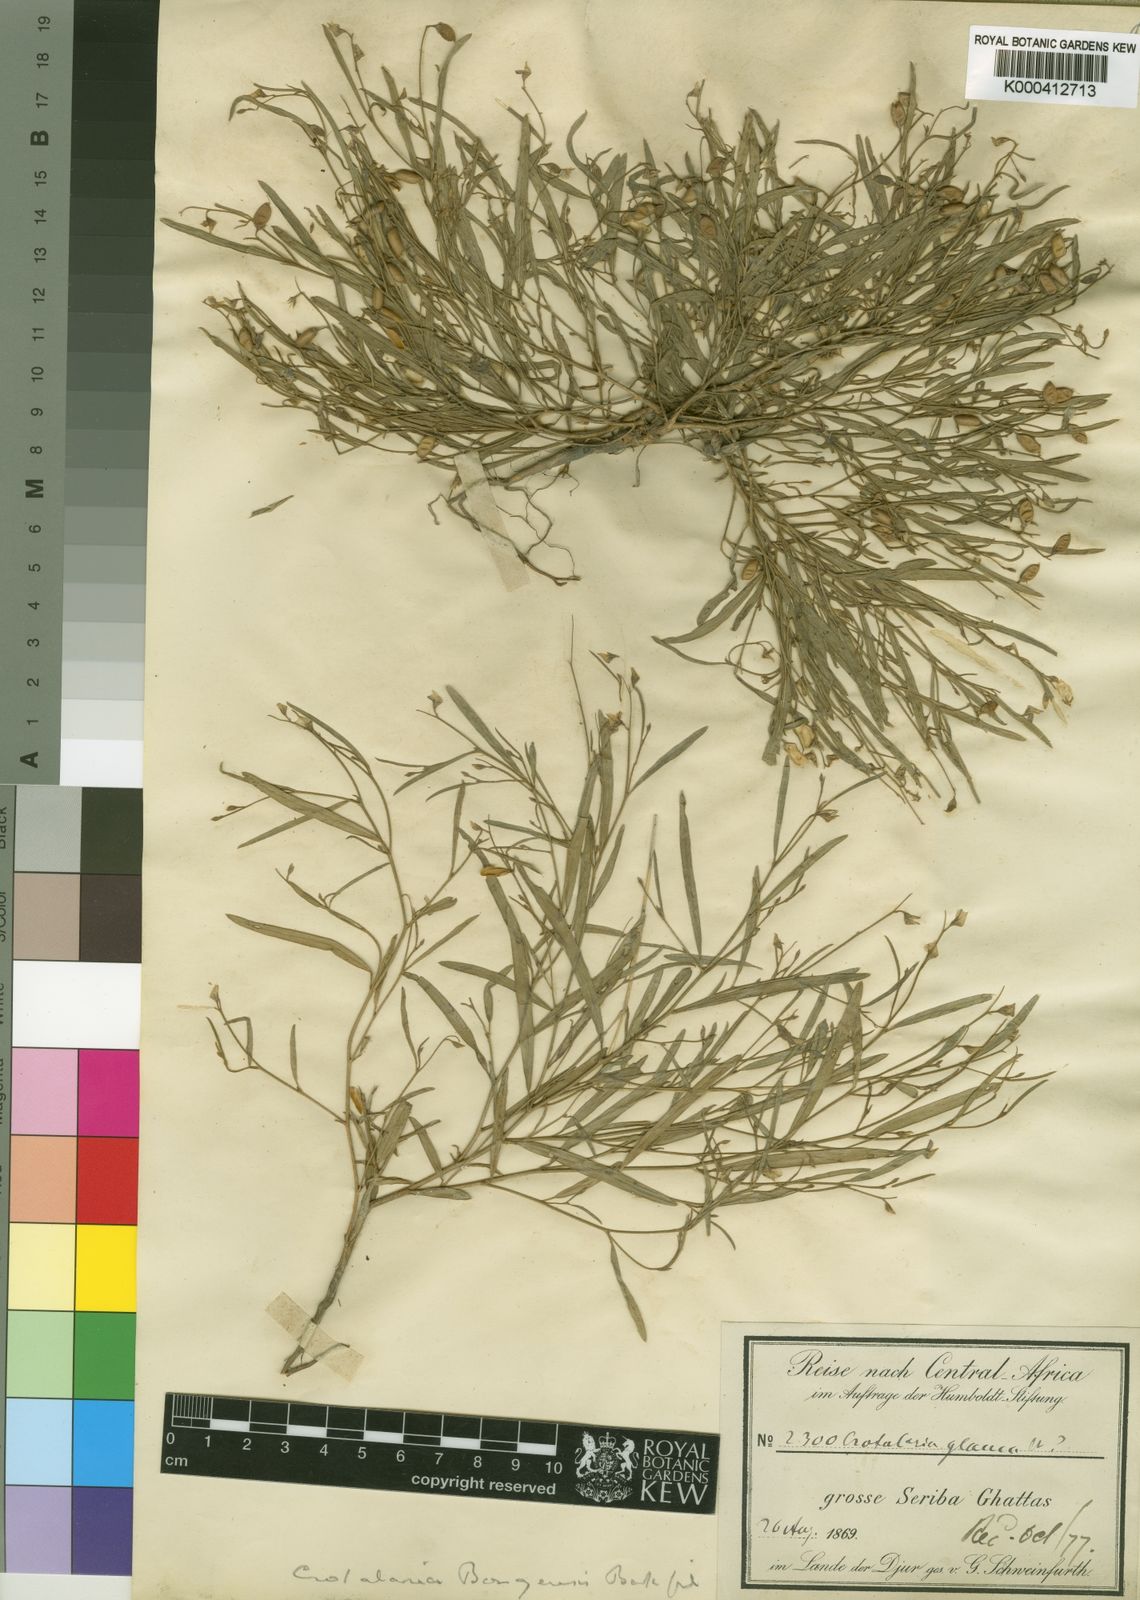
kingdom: Plantae
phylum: Tracheophyta
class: Magnoliopsida
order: Fabales
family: Fabaceae
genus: Crotalaria
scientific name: Crotalaria bongensis
